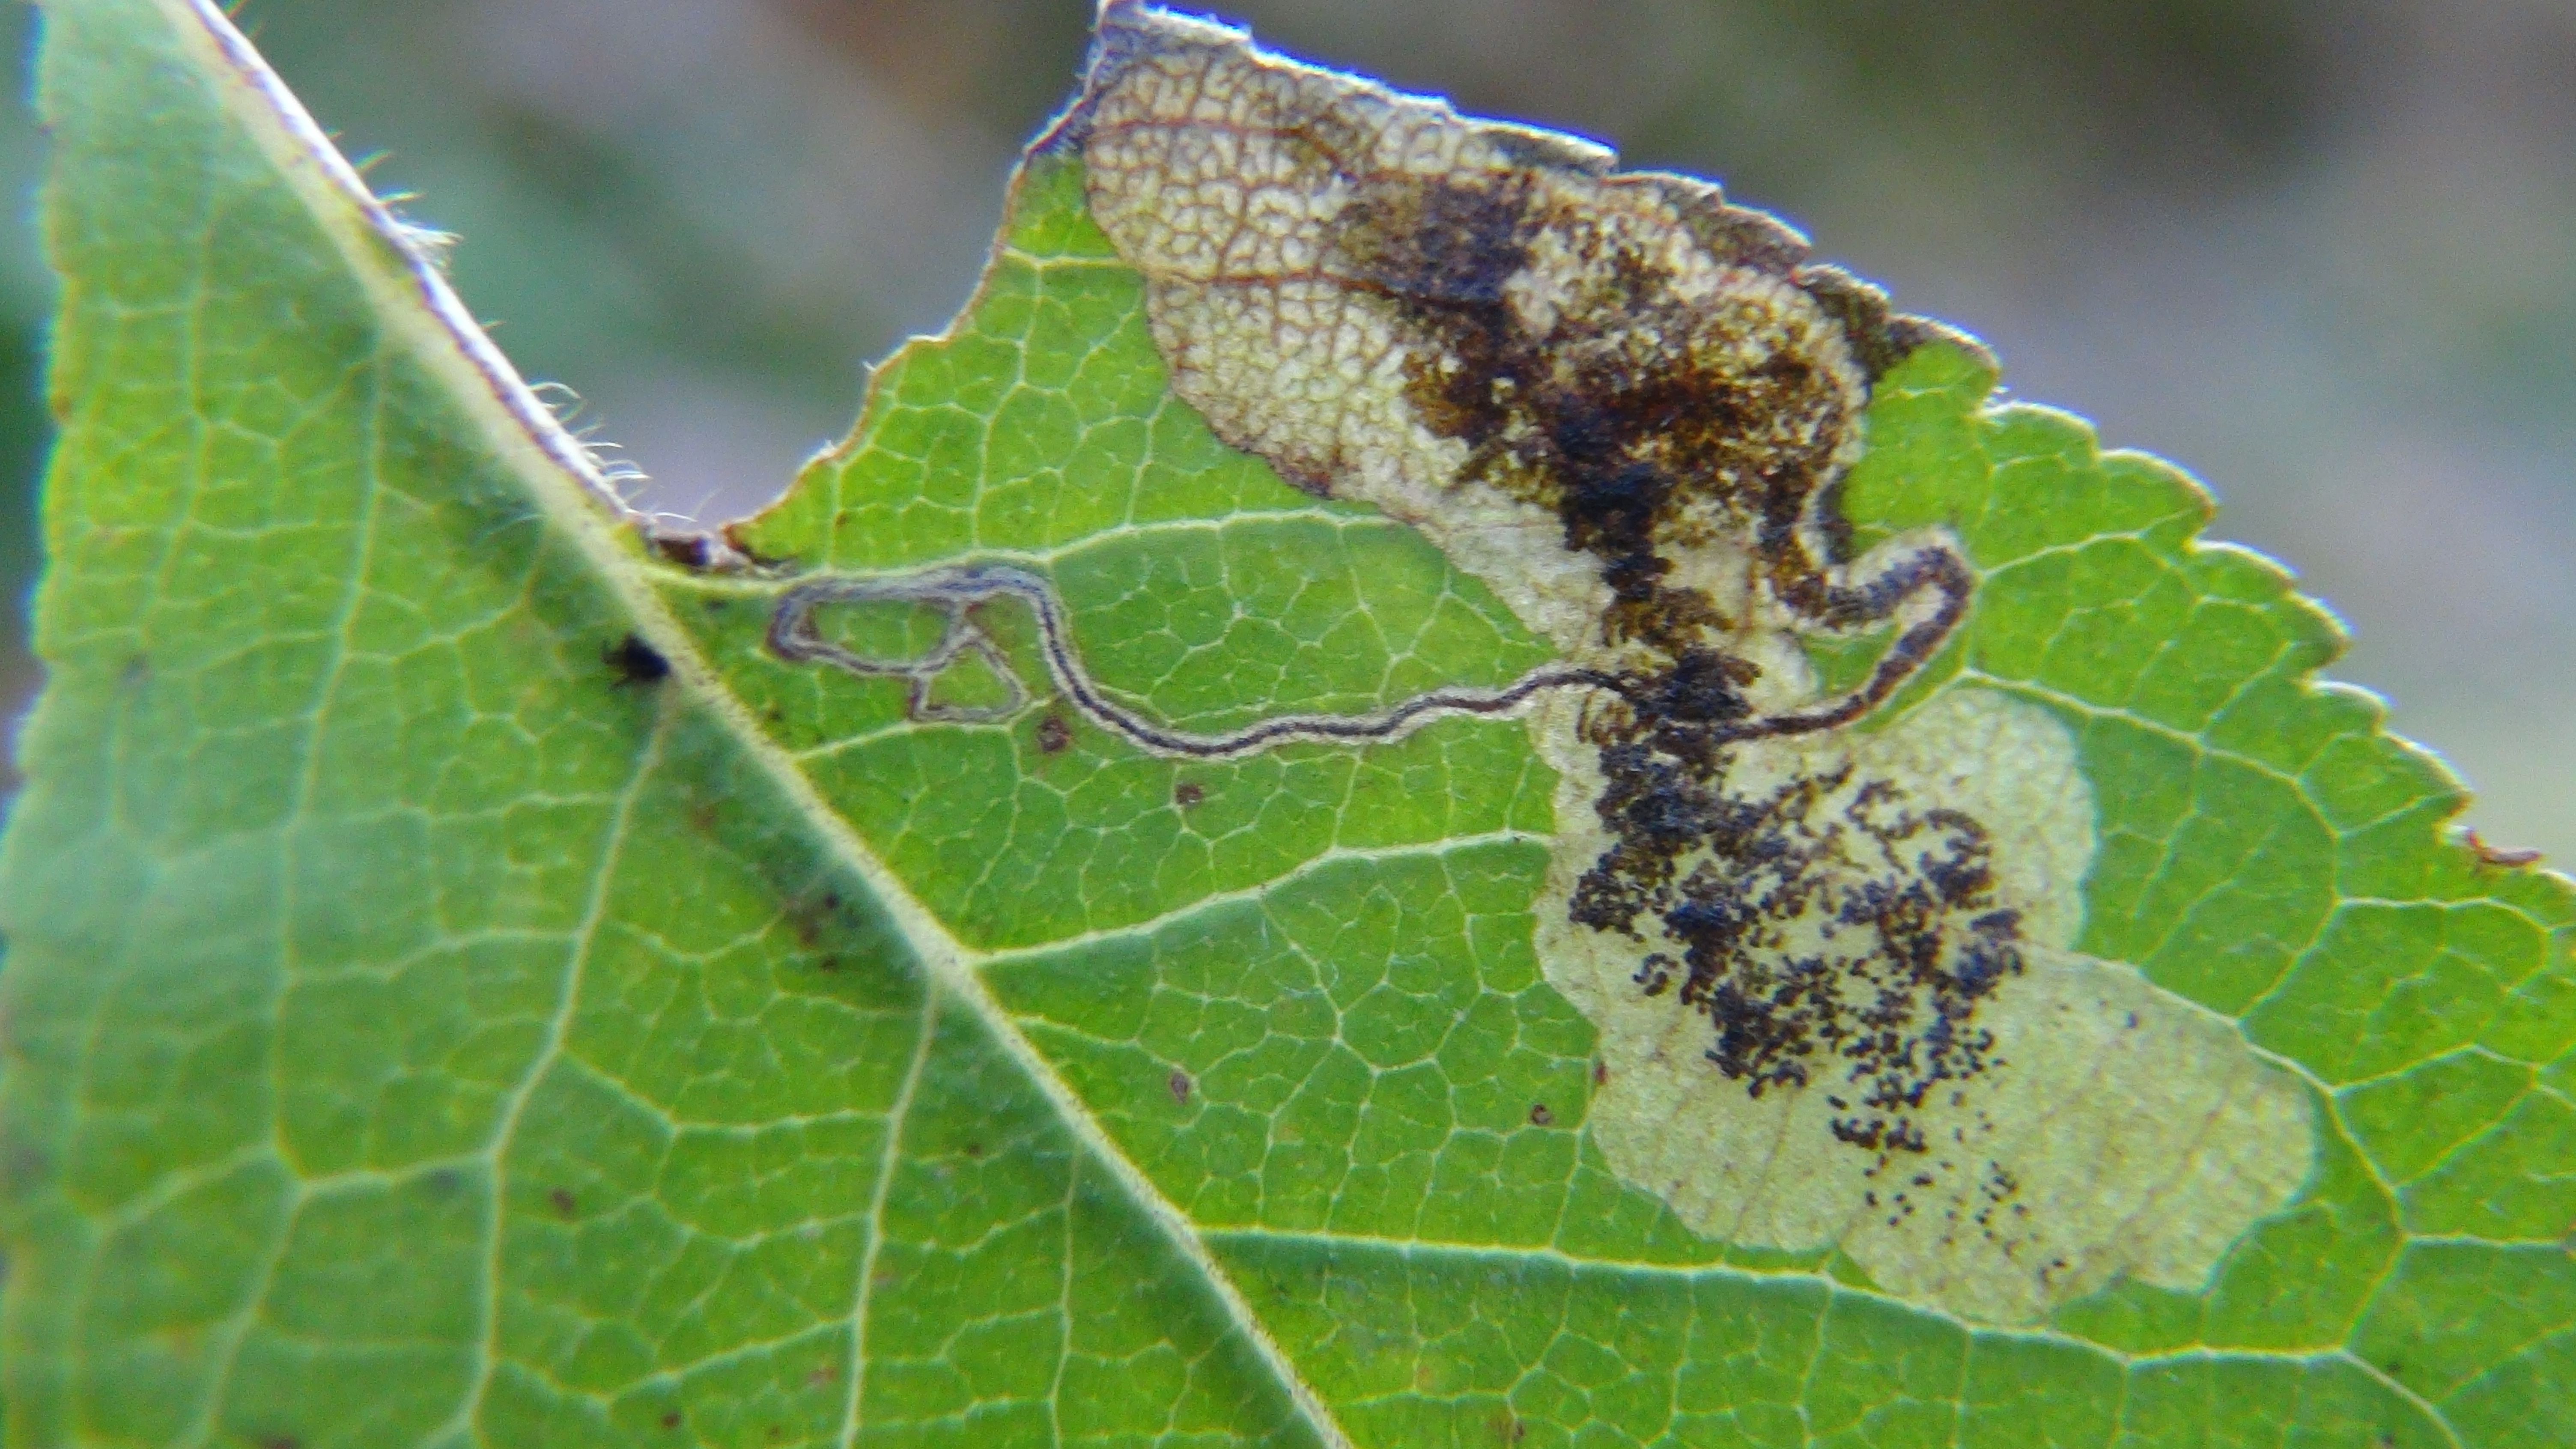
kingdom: Animalia
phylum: Arthropoda
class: Insecta
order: Lepidoptera
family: Nepticulidae
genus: Stigmella
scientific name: Stigmella plagicolella
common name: Scrubland pigmy
